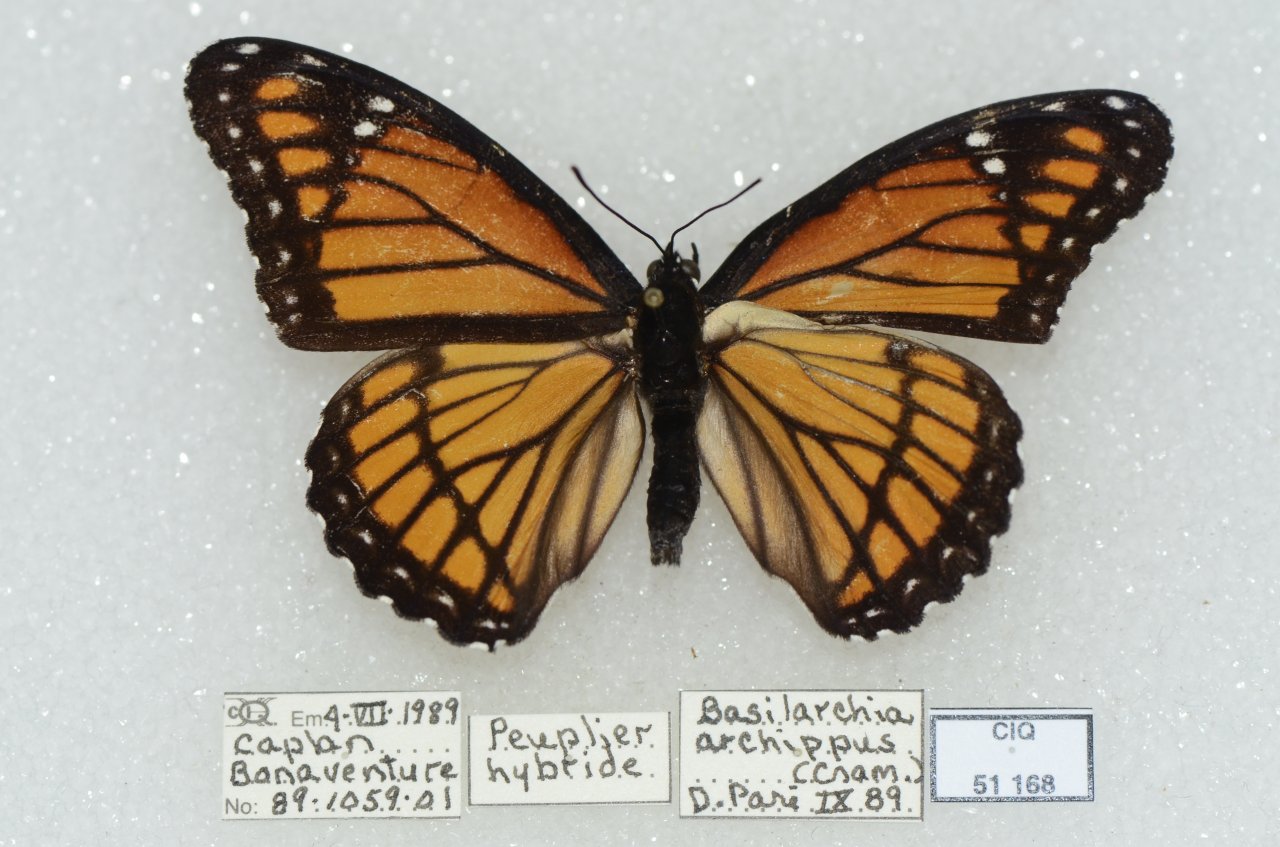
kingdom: Animalia
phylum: Arthropoda
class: Insecta
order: Lepidoptera
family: Nymphalidae
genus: Limenitis
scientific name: Limenitis archippus
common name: Viceroy
